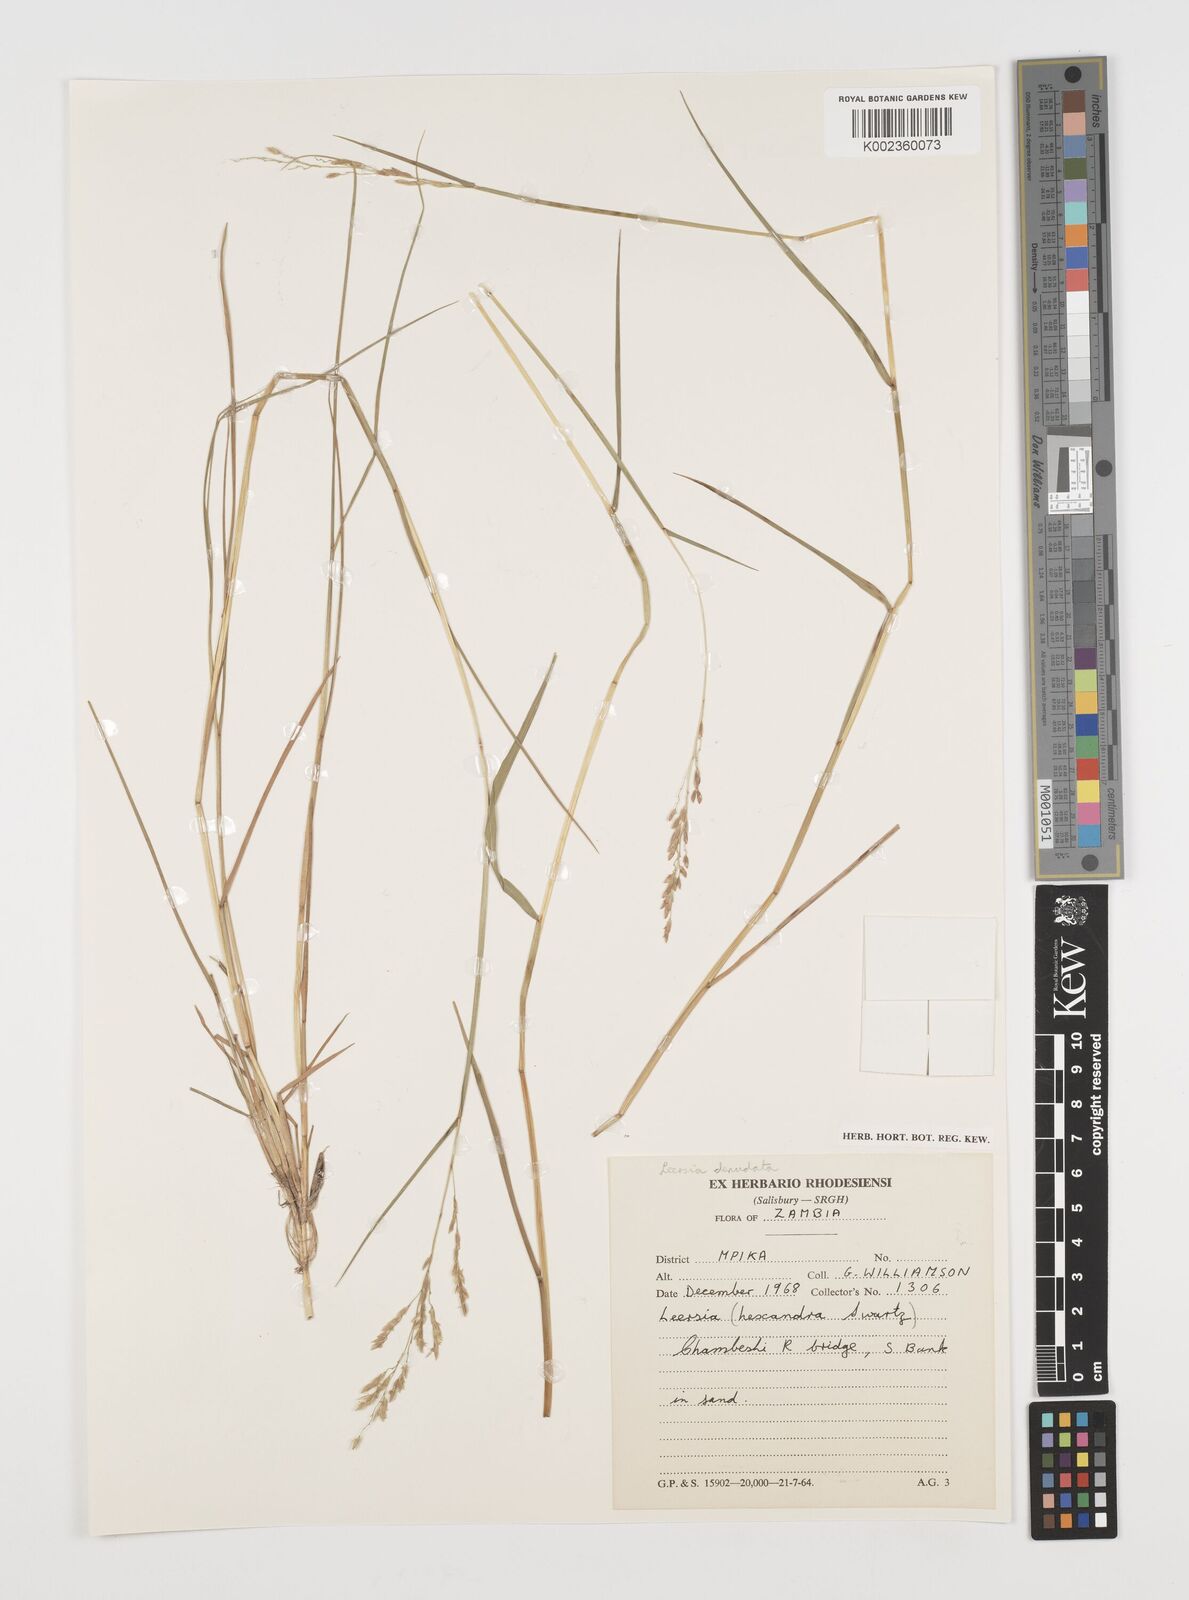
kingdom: Plantae
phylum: Tracheophyta
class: Liliopsida
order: Poales
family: Poaceae
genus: Leersia
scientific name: Leersia denudata
